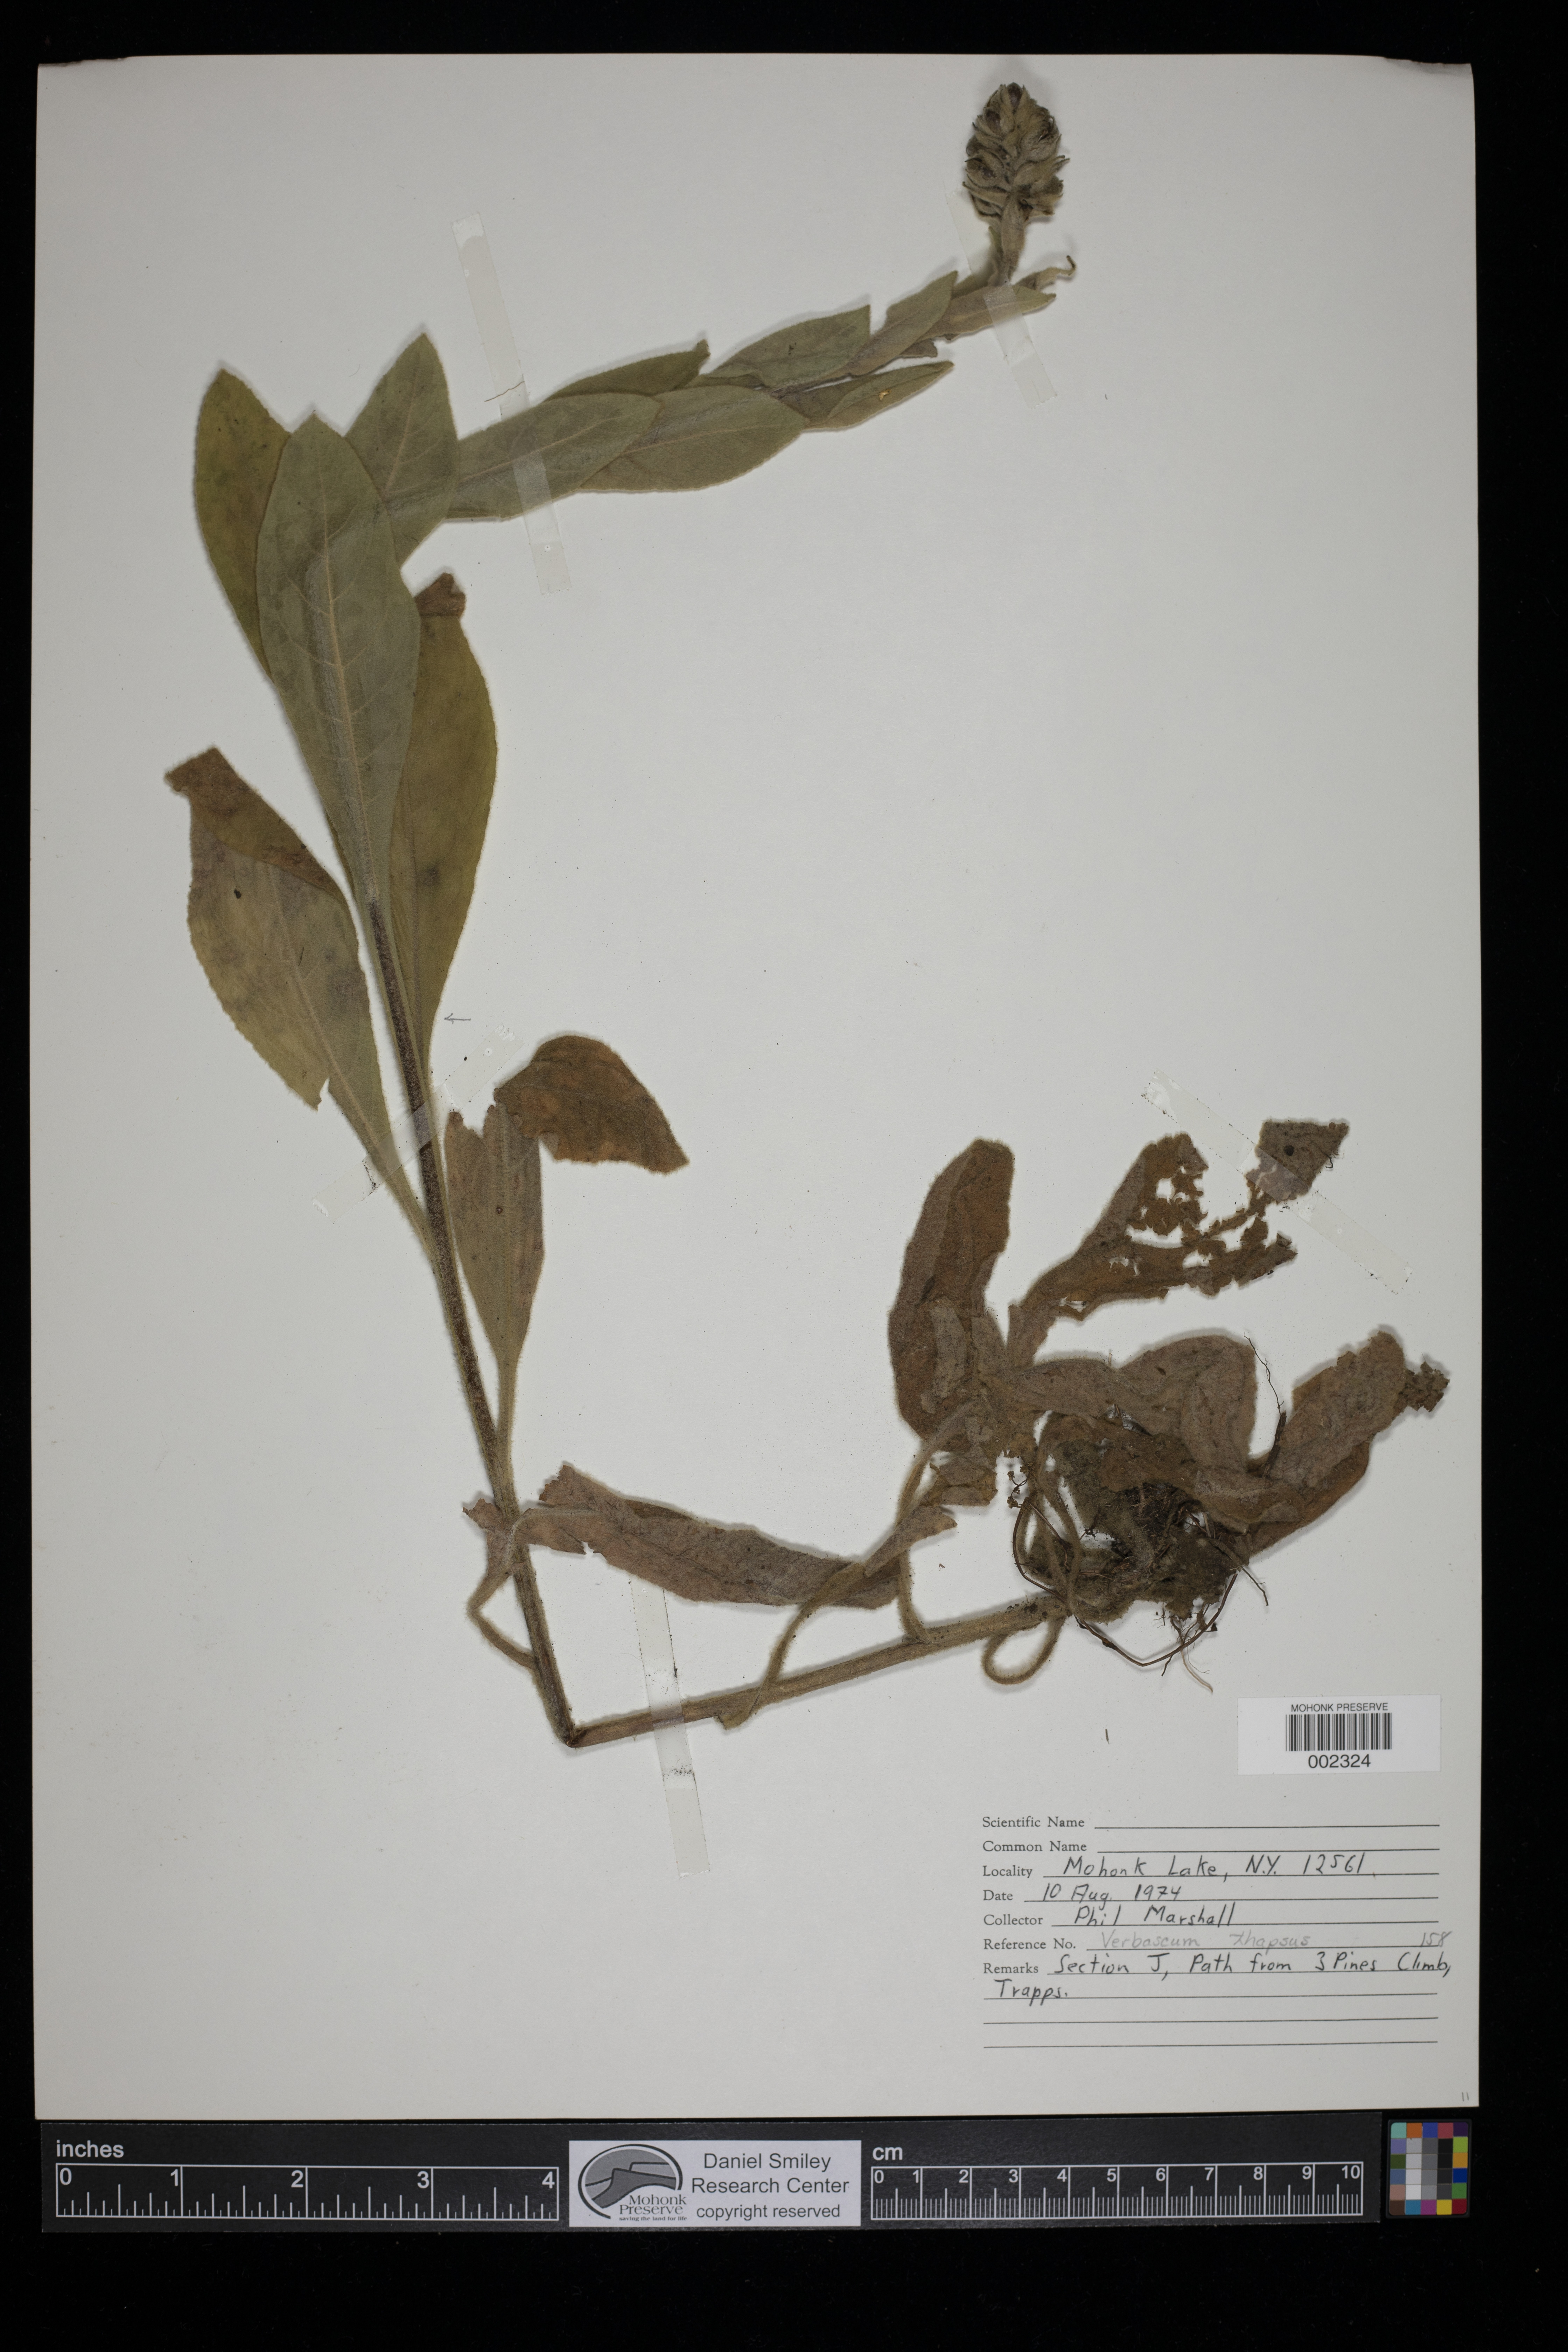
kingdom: Plantae
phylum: Tracheophyta
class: Magnoliopsida
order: Lamiales
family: Scrophulariaceae
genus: Verbascum
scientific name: Verbascum thapsus
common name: Common mullein
